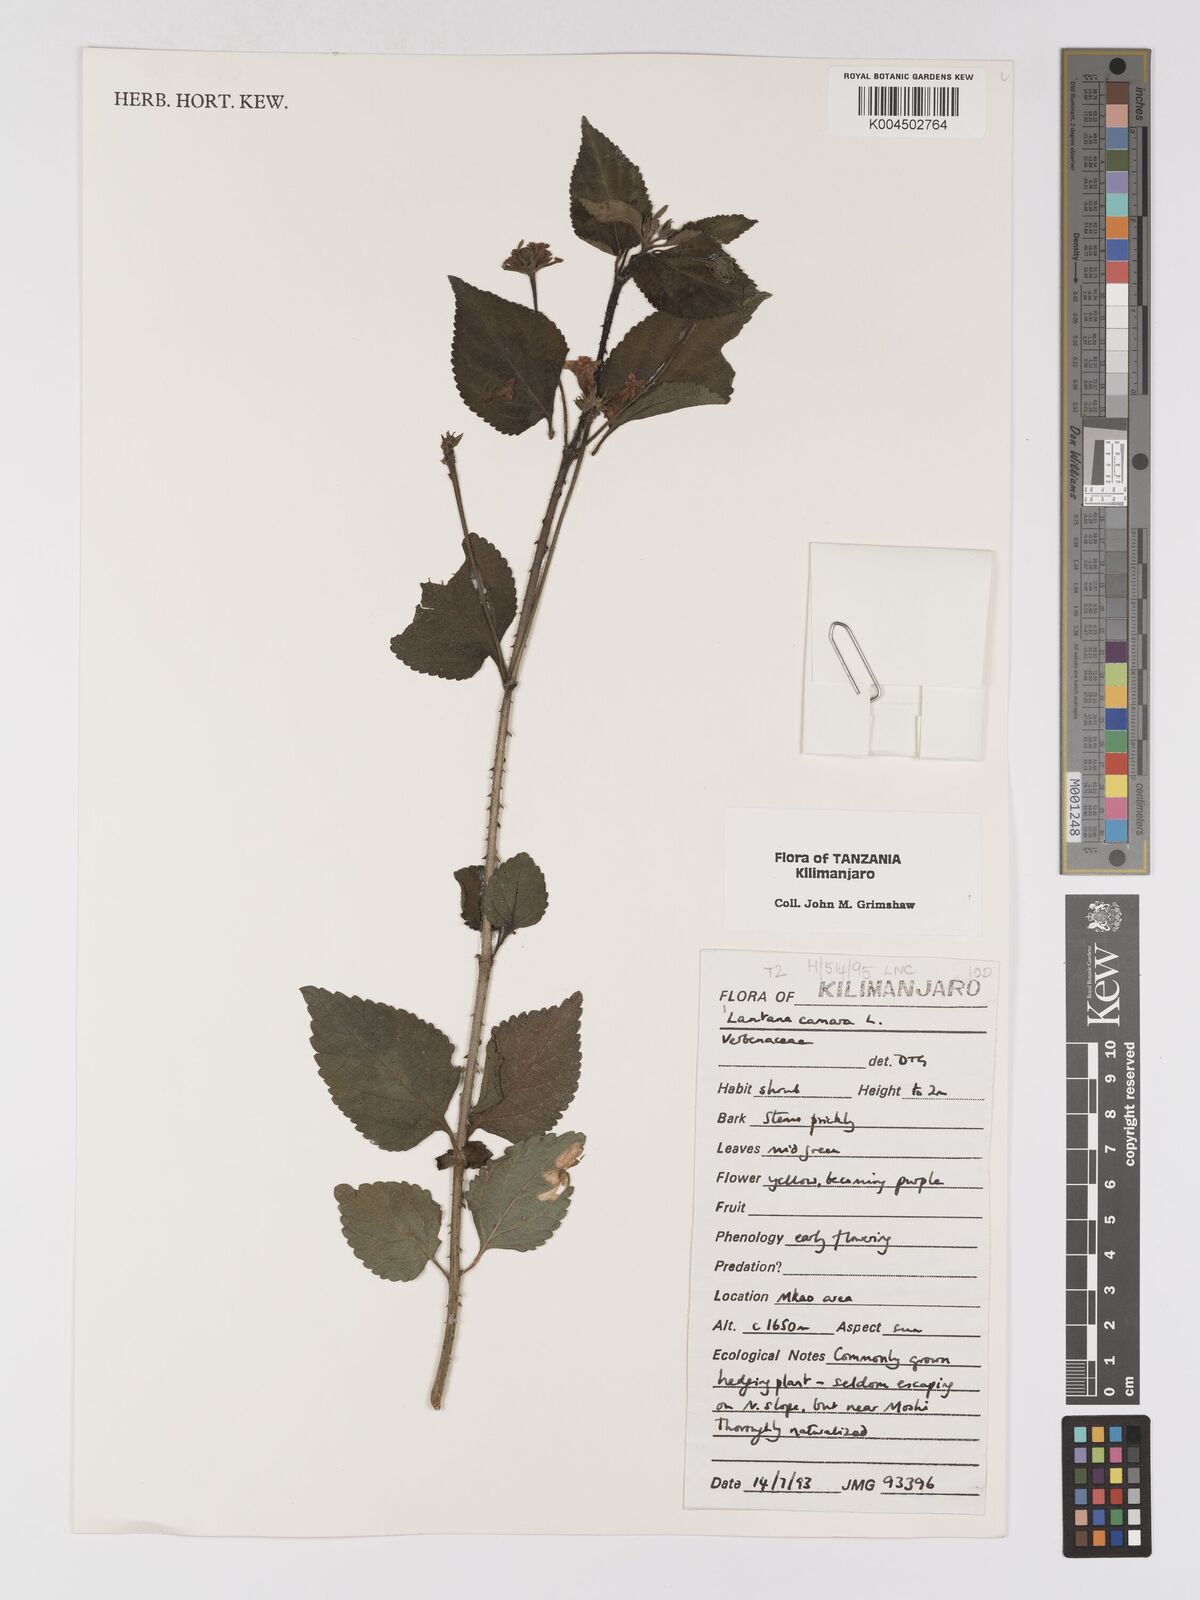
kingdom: Plantae
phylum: Tracheophyta
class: Magnoliopsida
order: Lamiales
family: Verbenaceae
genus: Lantana
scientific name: Lantana camara
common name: Lantana
